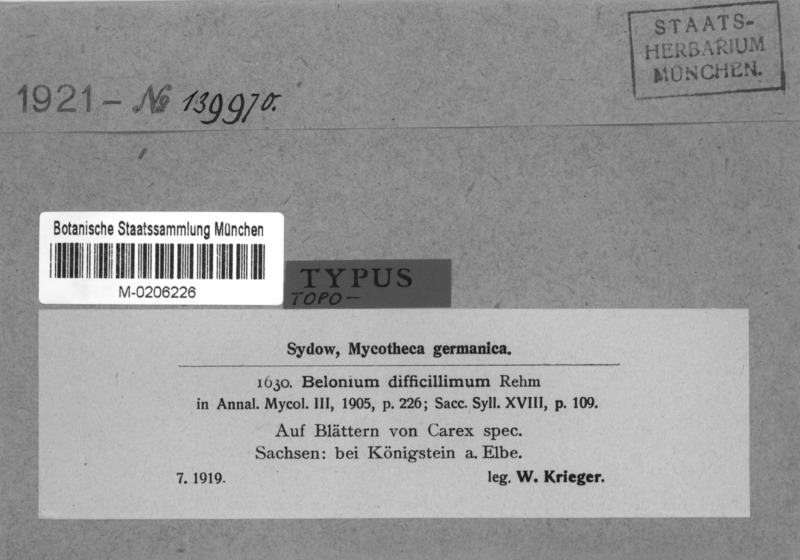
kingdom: Fungi
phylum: Ascomycota
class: Leotiomycetes
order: Helotiales
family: Lachnaceae
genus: Belonidium
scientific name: Belonidium difficillimum
